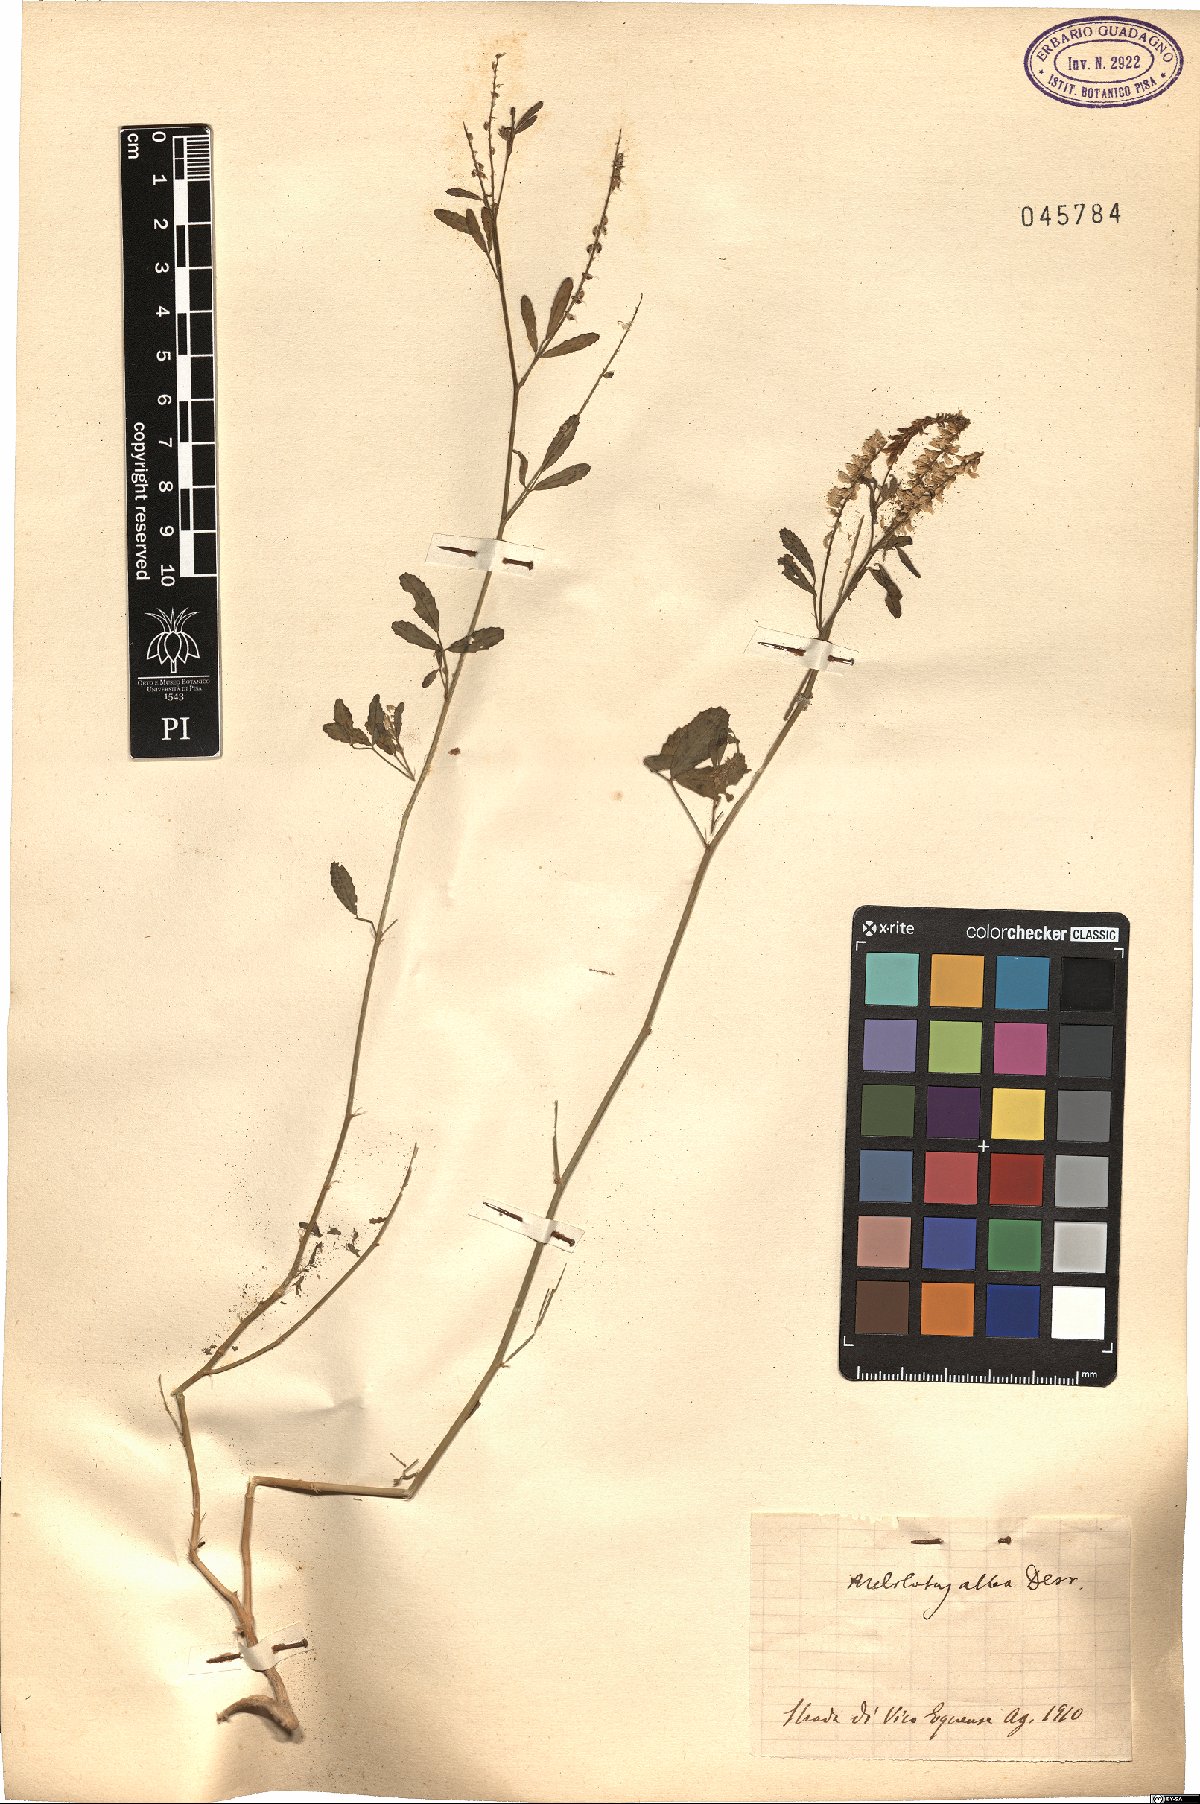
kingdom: Plantae
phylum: Tracheophyta
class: Magnoliopsida
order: Fabales
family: Fabaceae
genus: Melilotus
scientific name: Melilotus albus
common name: White melilot
